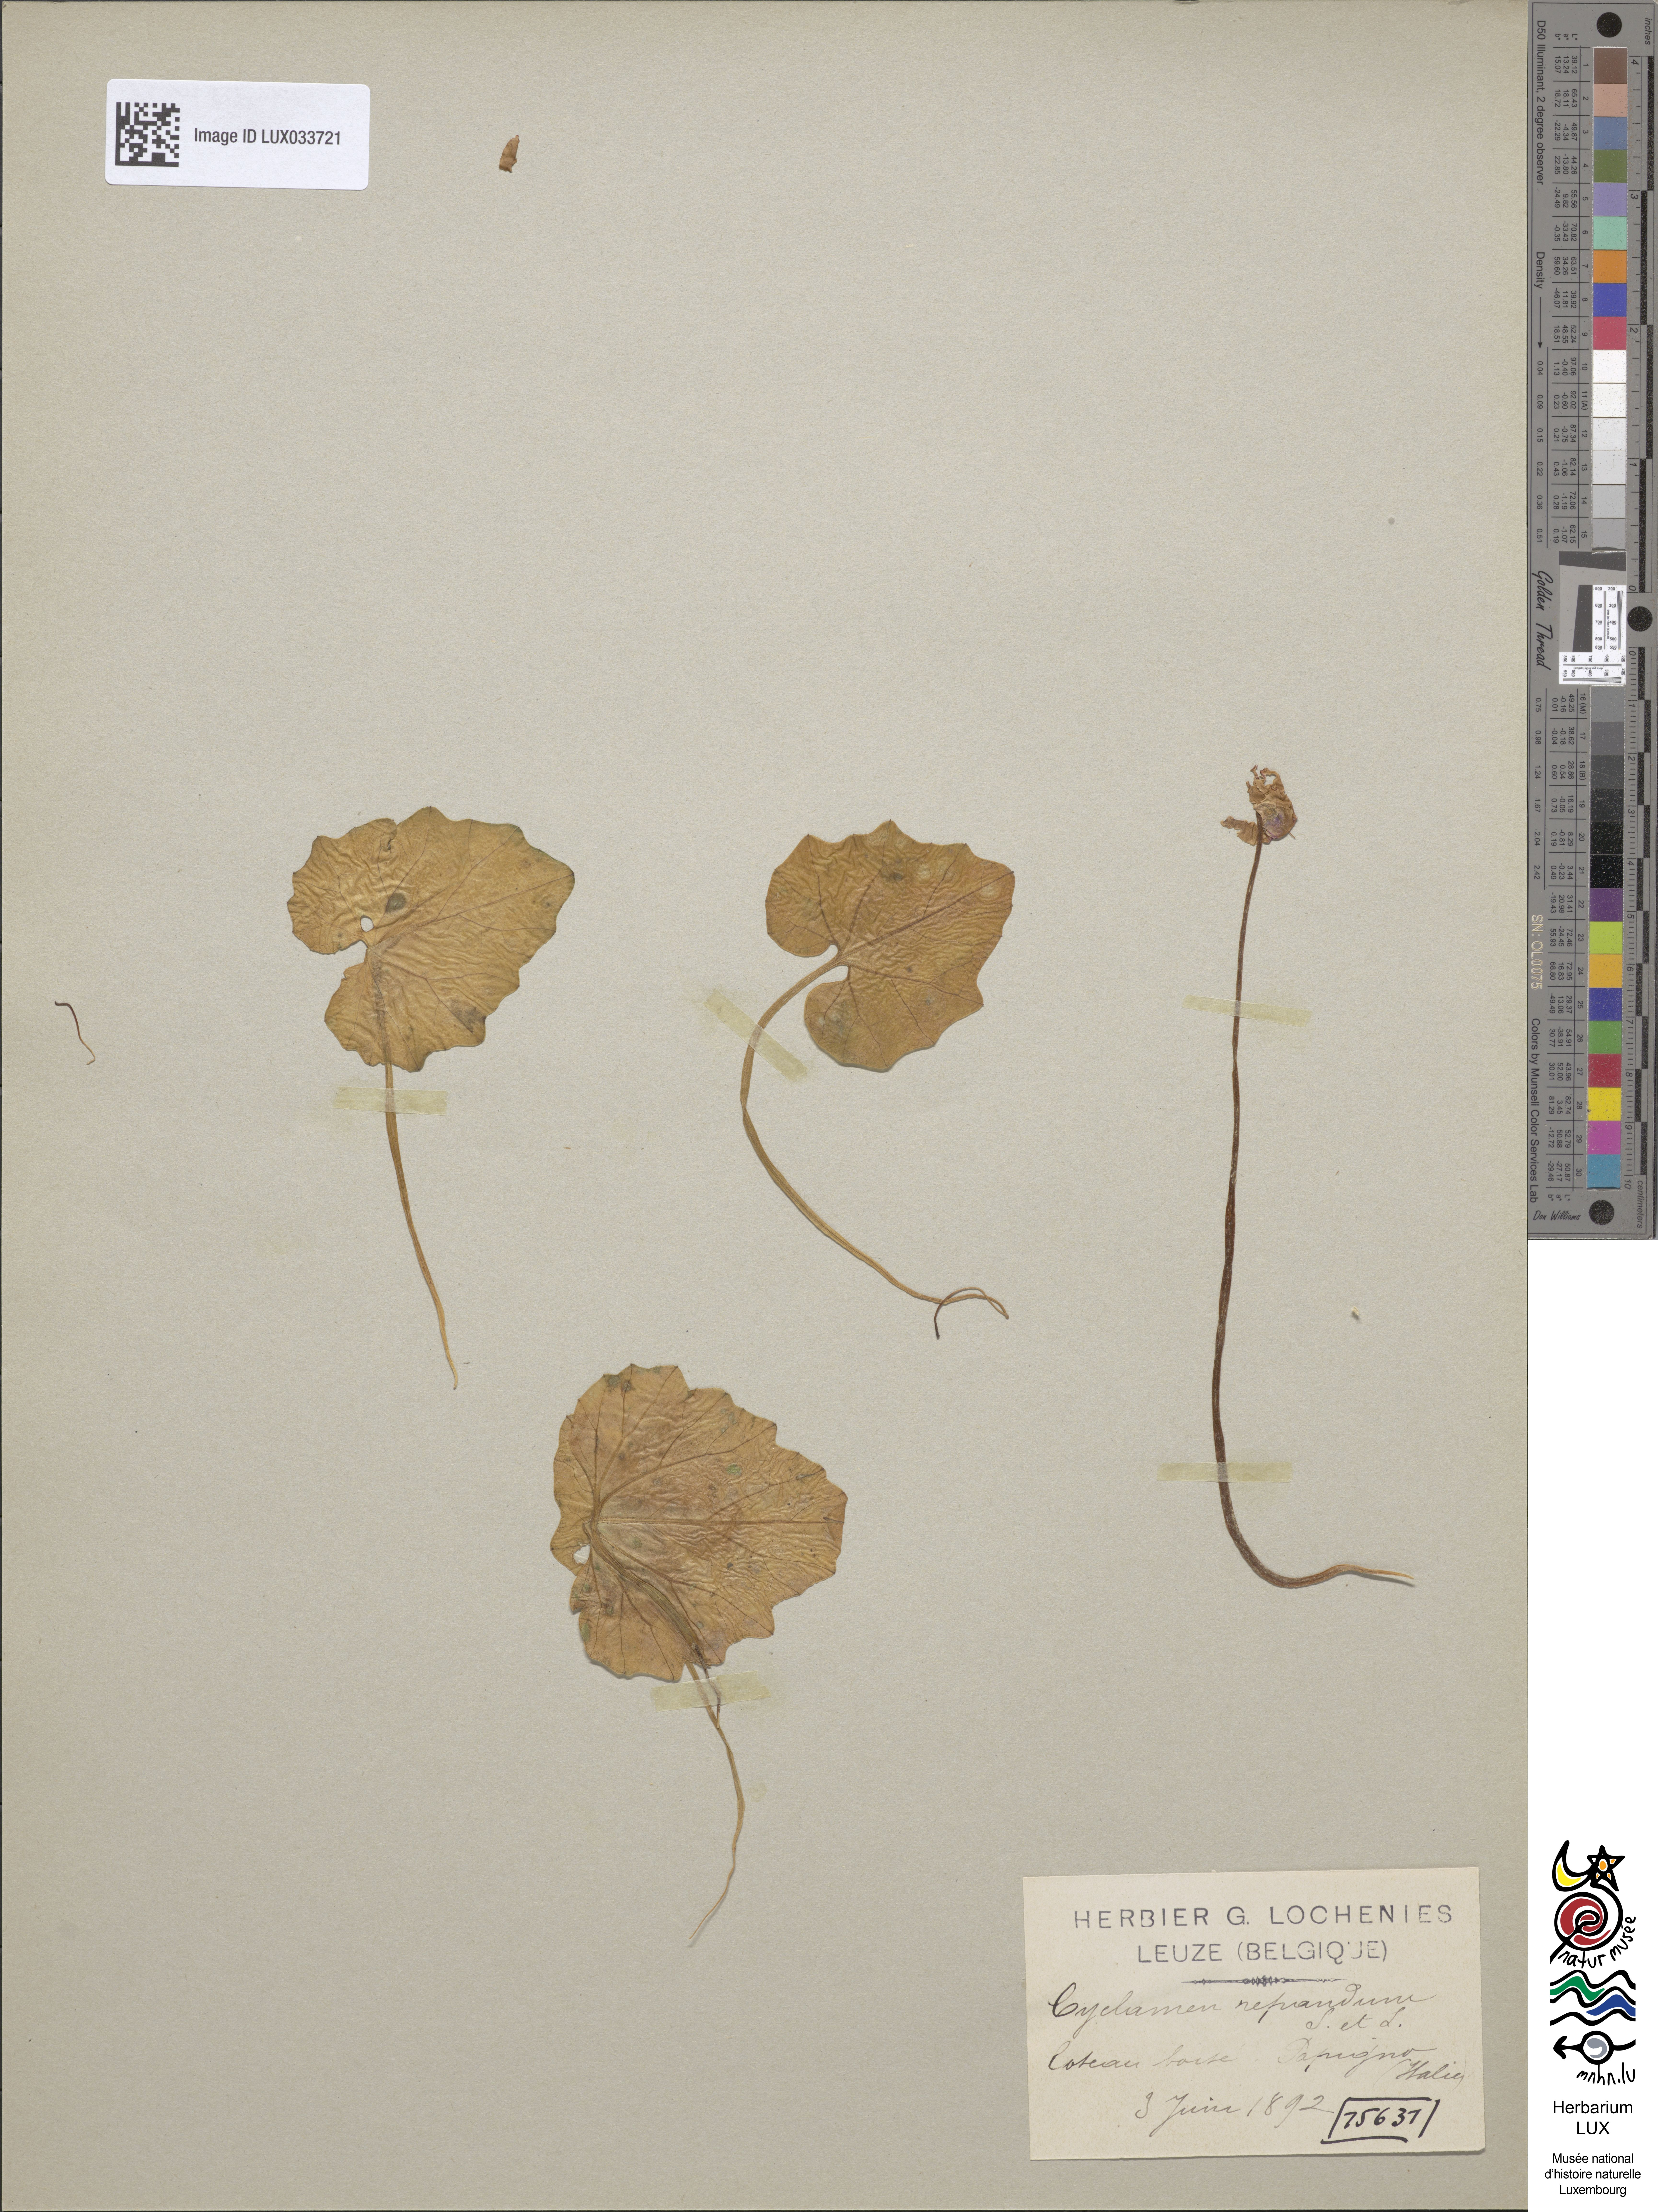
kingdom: Plantae
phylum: Tracheophyta
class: Magnoliopsida
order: Ericales
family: Primulaceae
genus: Cyclamen
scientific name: Cyclamen repandum
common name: Spring sowbread
